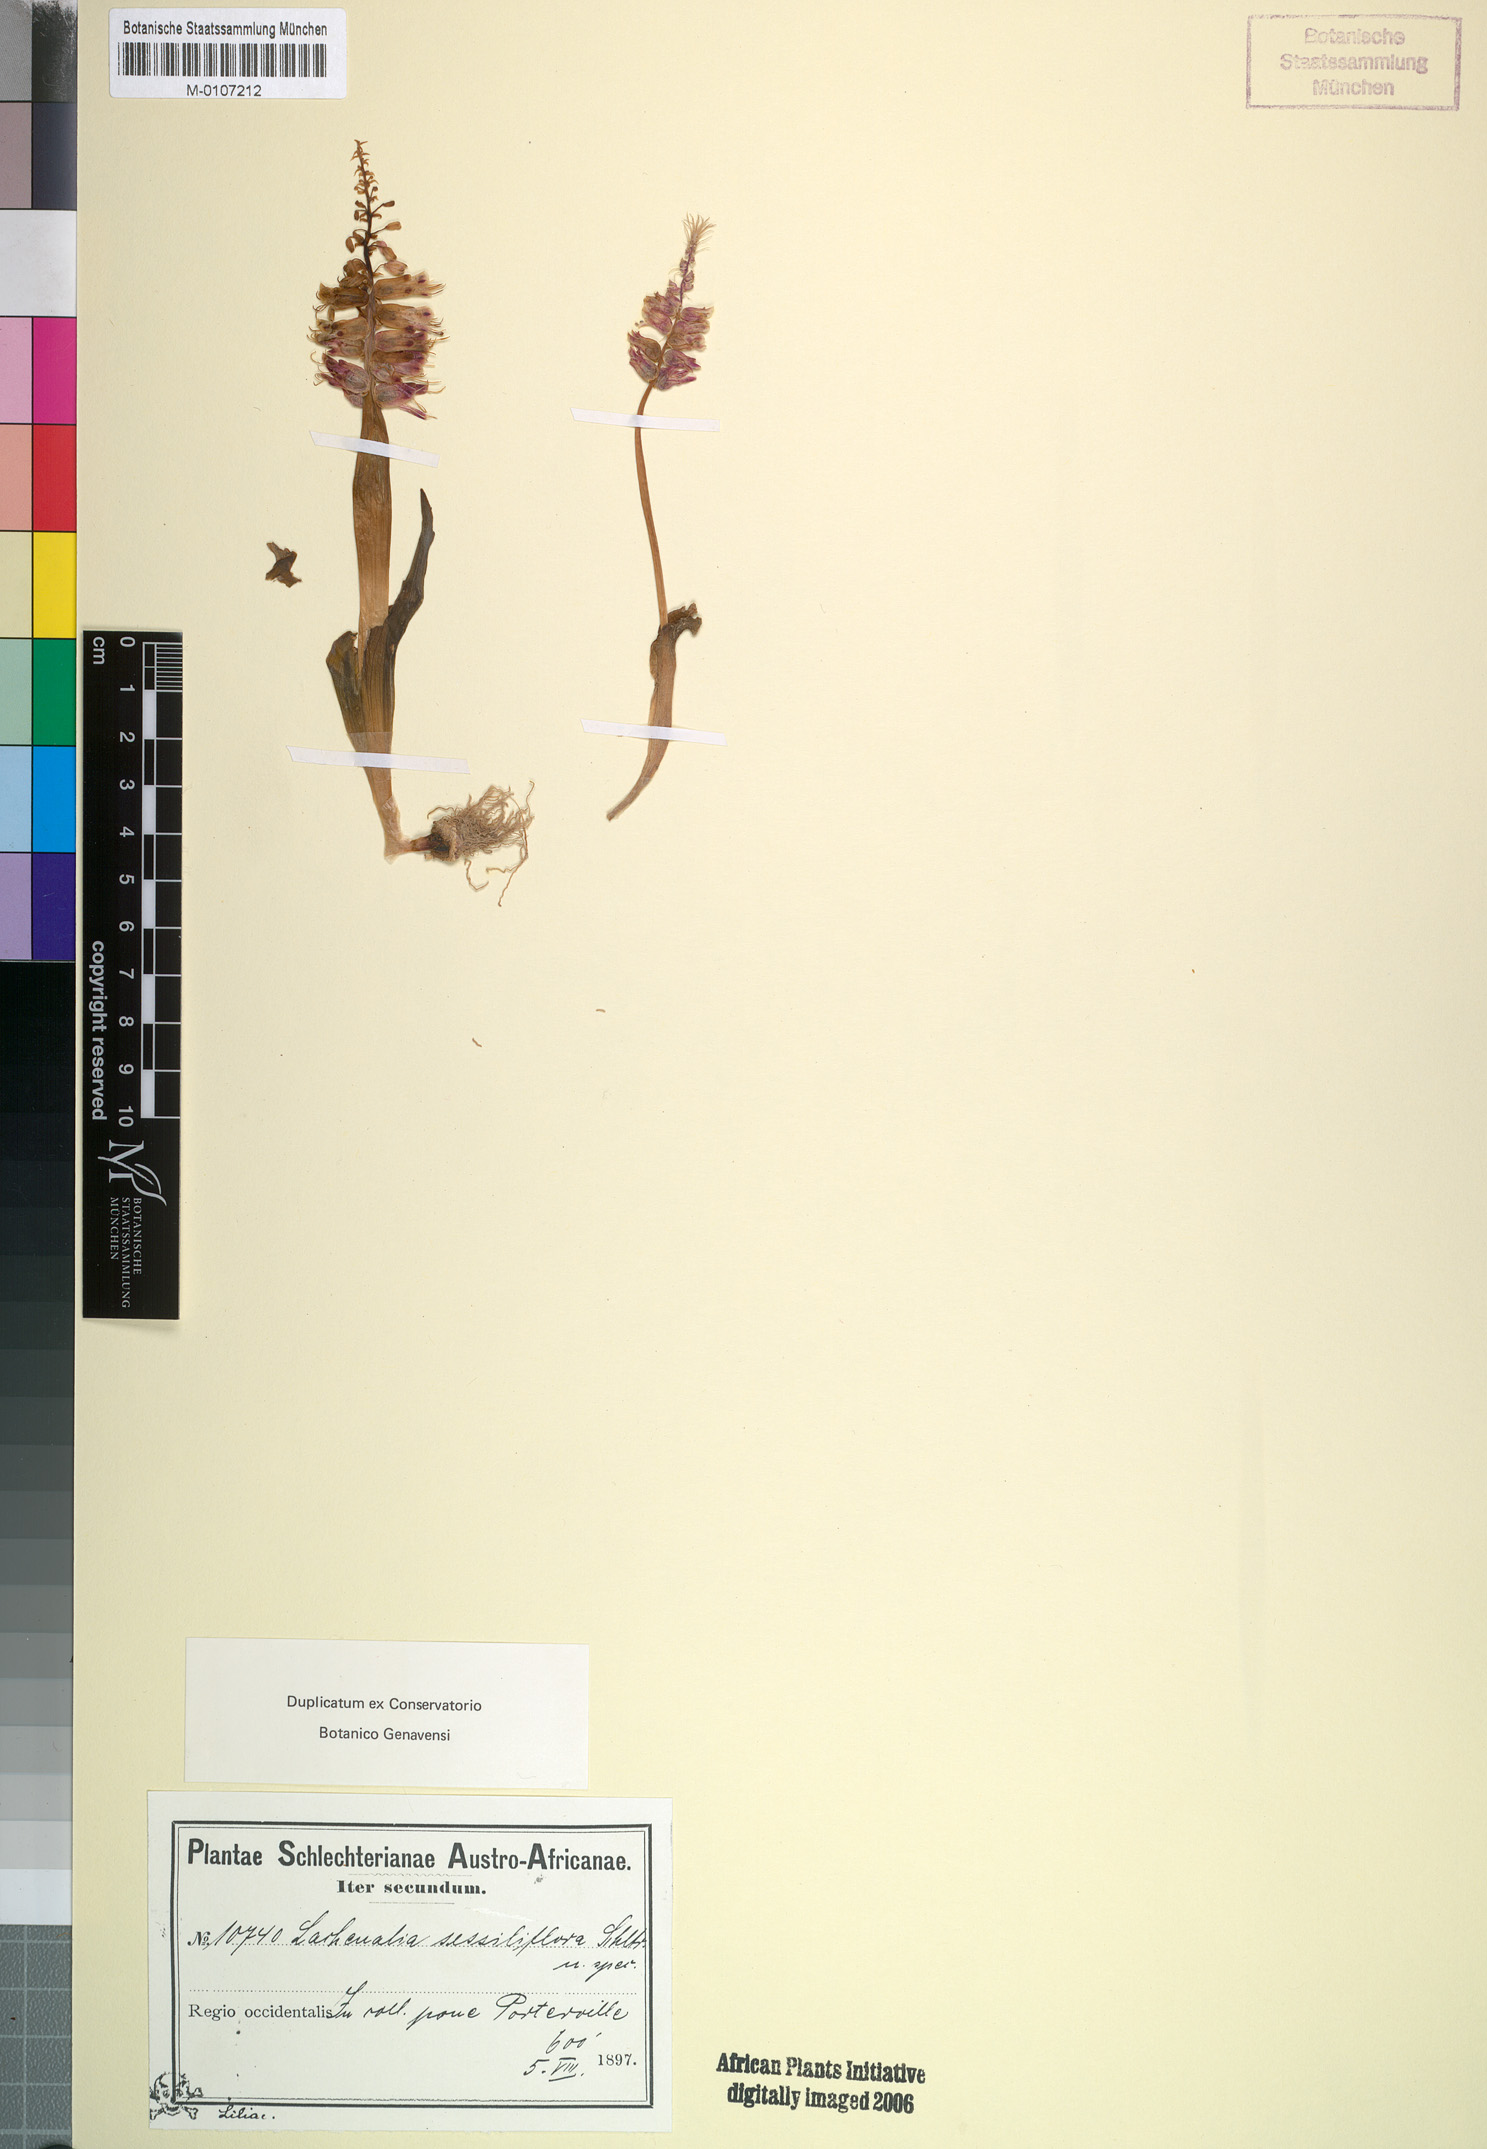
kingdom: Plantae
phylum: Tracheophyta
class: Liliopsida
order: Asparagales
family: Asparagaceae
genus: Lachenalia
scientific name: Lachenalia sessiliflora
